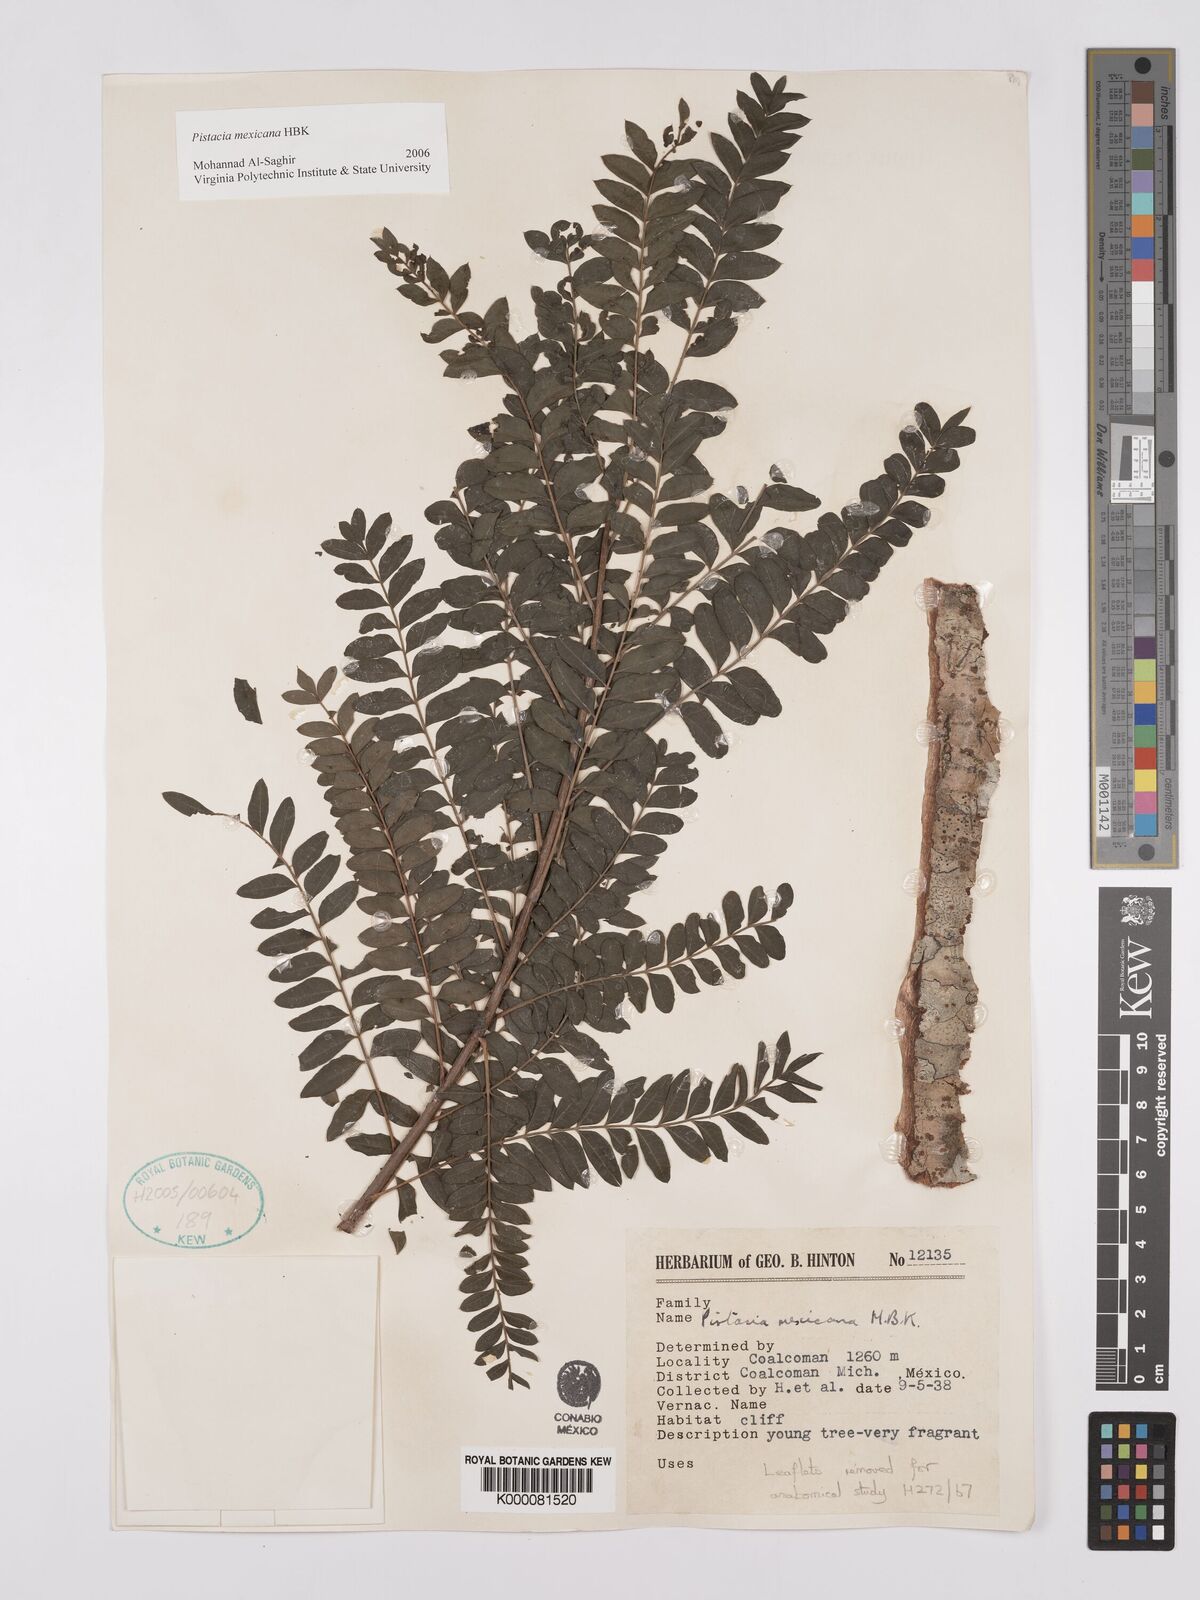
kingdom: Plantae
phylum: Tracheophyta
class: Magnoliopsida
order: Sapindales
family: Anacardiaceae
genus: Pistacia
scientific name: Pistacia mexicana
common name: Mexican pistachio
